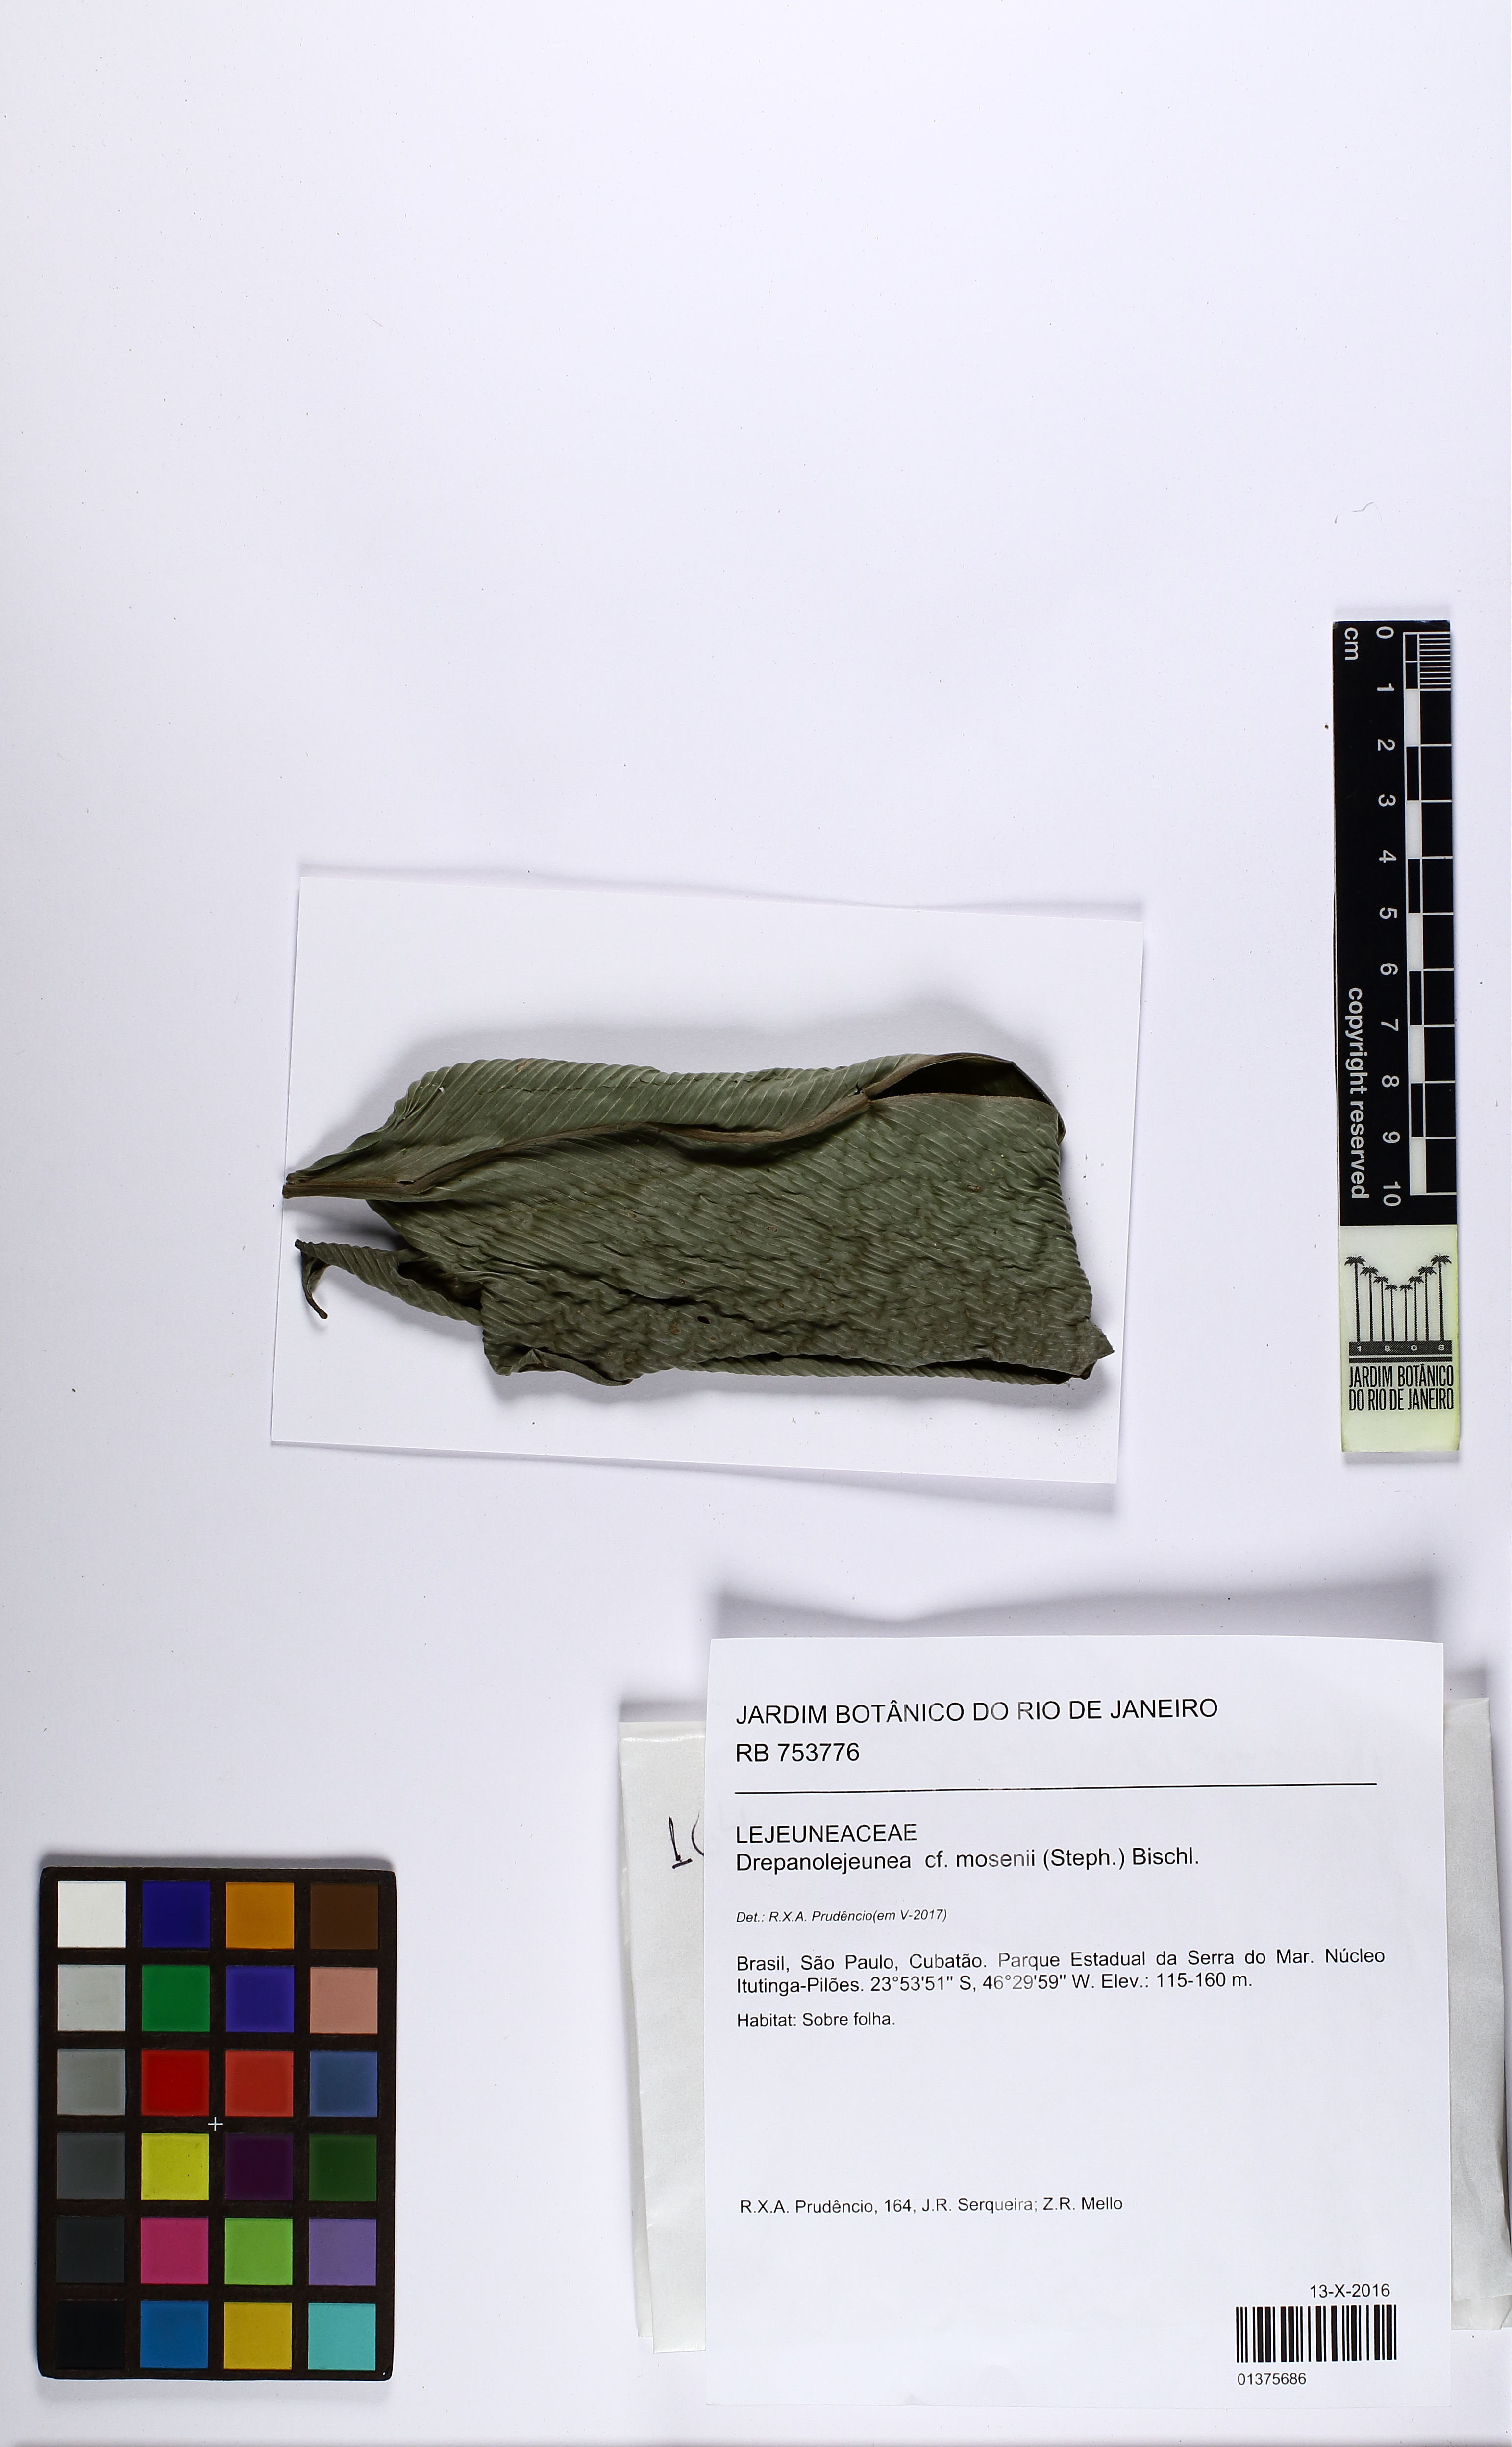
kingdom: Plantae
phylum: Marchantiophyta
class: Jungermanniopsida
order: Porellales
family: Lejeuneaceae
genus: Drepanolejeunea
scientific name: Drepanolejeunea mosenii
